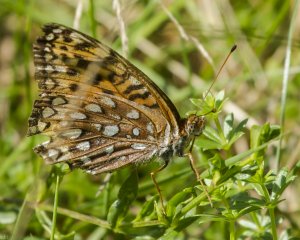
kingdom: Animalia
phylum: Arthropoda
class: Insecta
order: Lepidoptera
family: Nymphalidae
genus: Speyeria
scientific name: Speyeria atlantis
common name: Atlantis Fritillary
